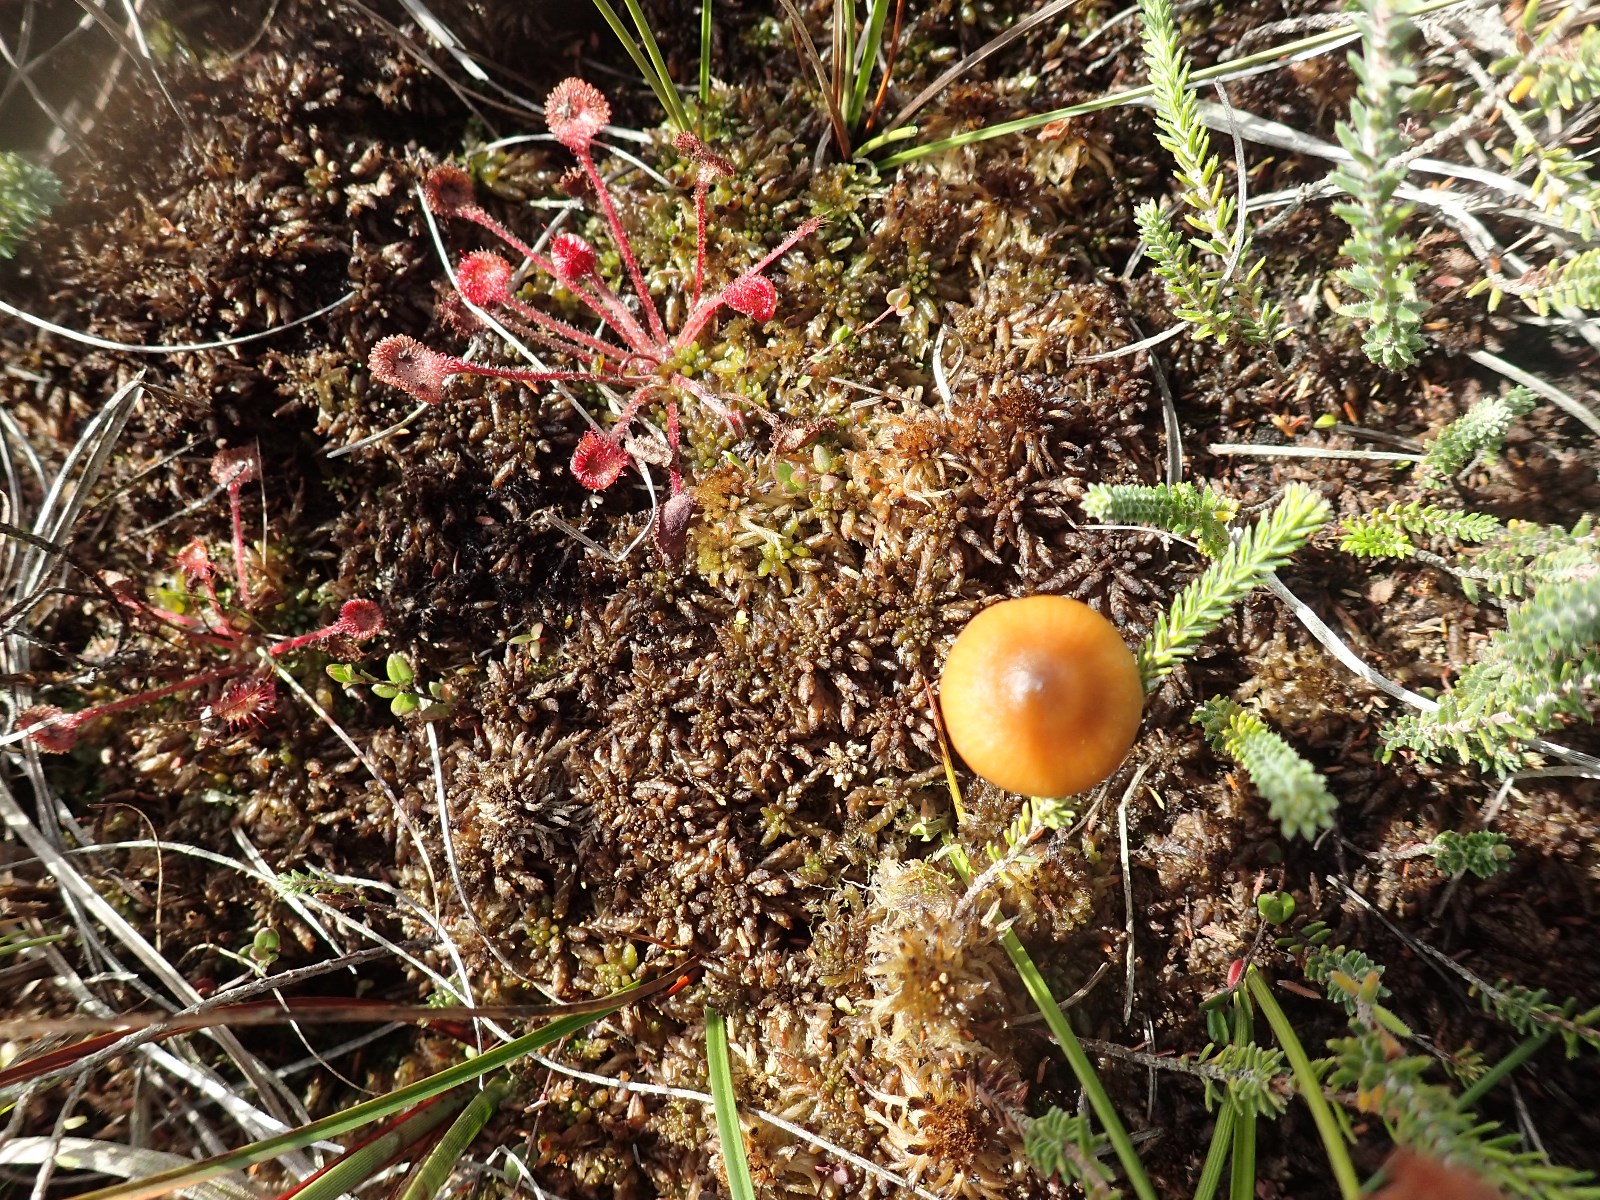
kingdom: Fungi
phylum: Basidiomycota
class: Agaricomycetes
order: Agaricales
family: Hymenogastraceae
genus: Galerina
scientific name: Galerina hybrida
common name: hængesæk-hjelmhat
